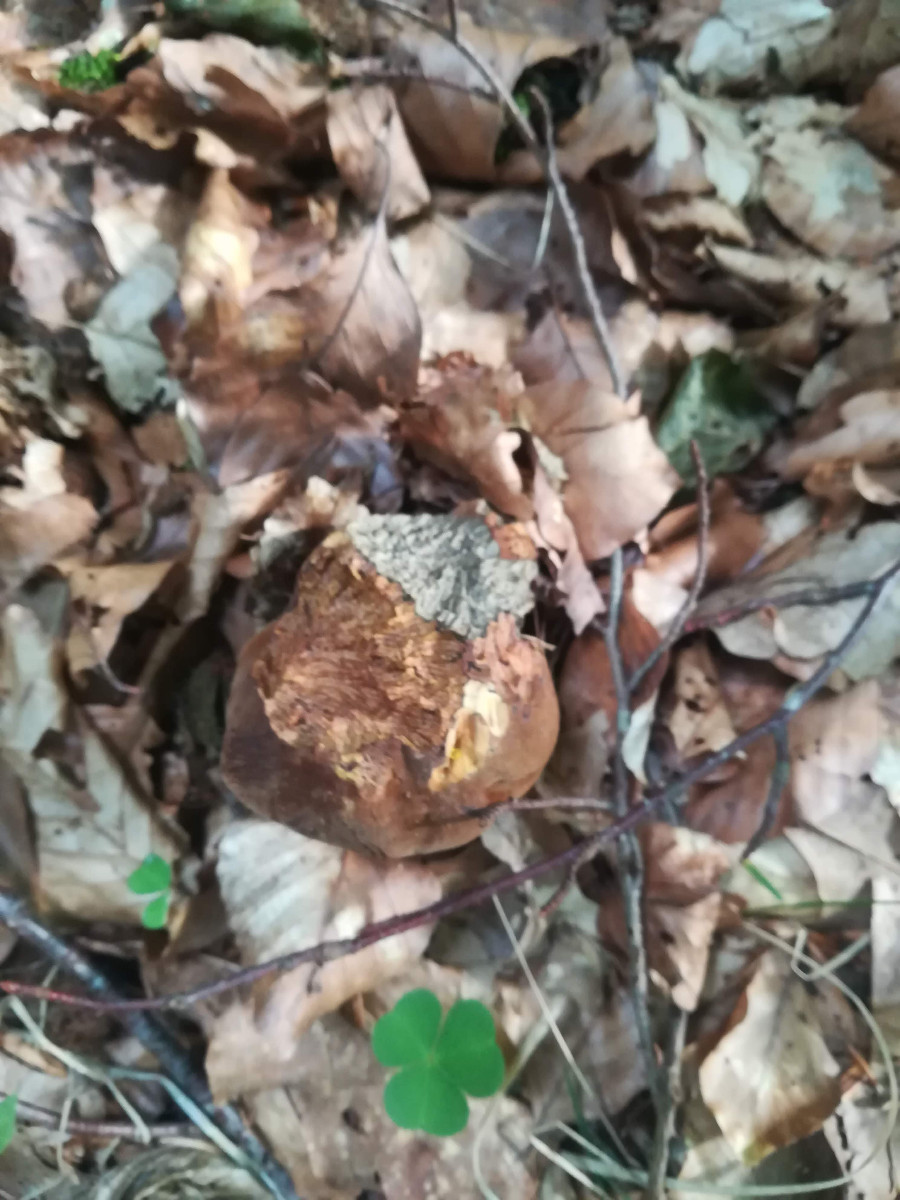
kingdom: Fungi
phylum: Basidiomycota
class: Agaricomycetes
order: Boletales
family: Boletaceae
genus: Neoboletus
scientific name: Neoboletus erythropus
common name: punktstokket indigorørhat
